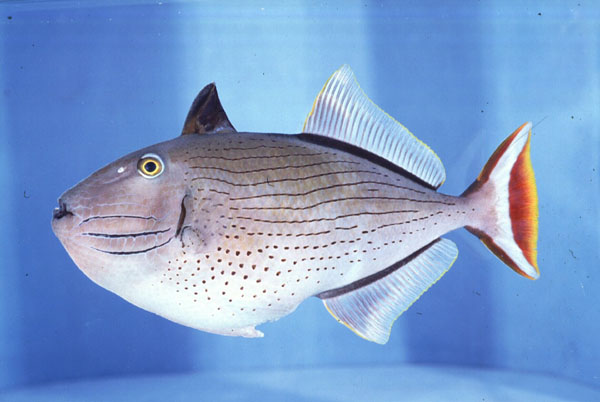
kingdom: Animalia
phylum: Chordata
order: Tetraodontiformes
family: Balistidae
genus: Xanthichthys
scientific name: Xanthichthys lineopunctatus
